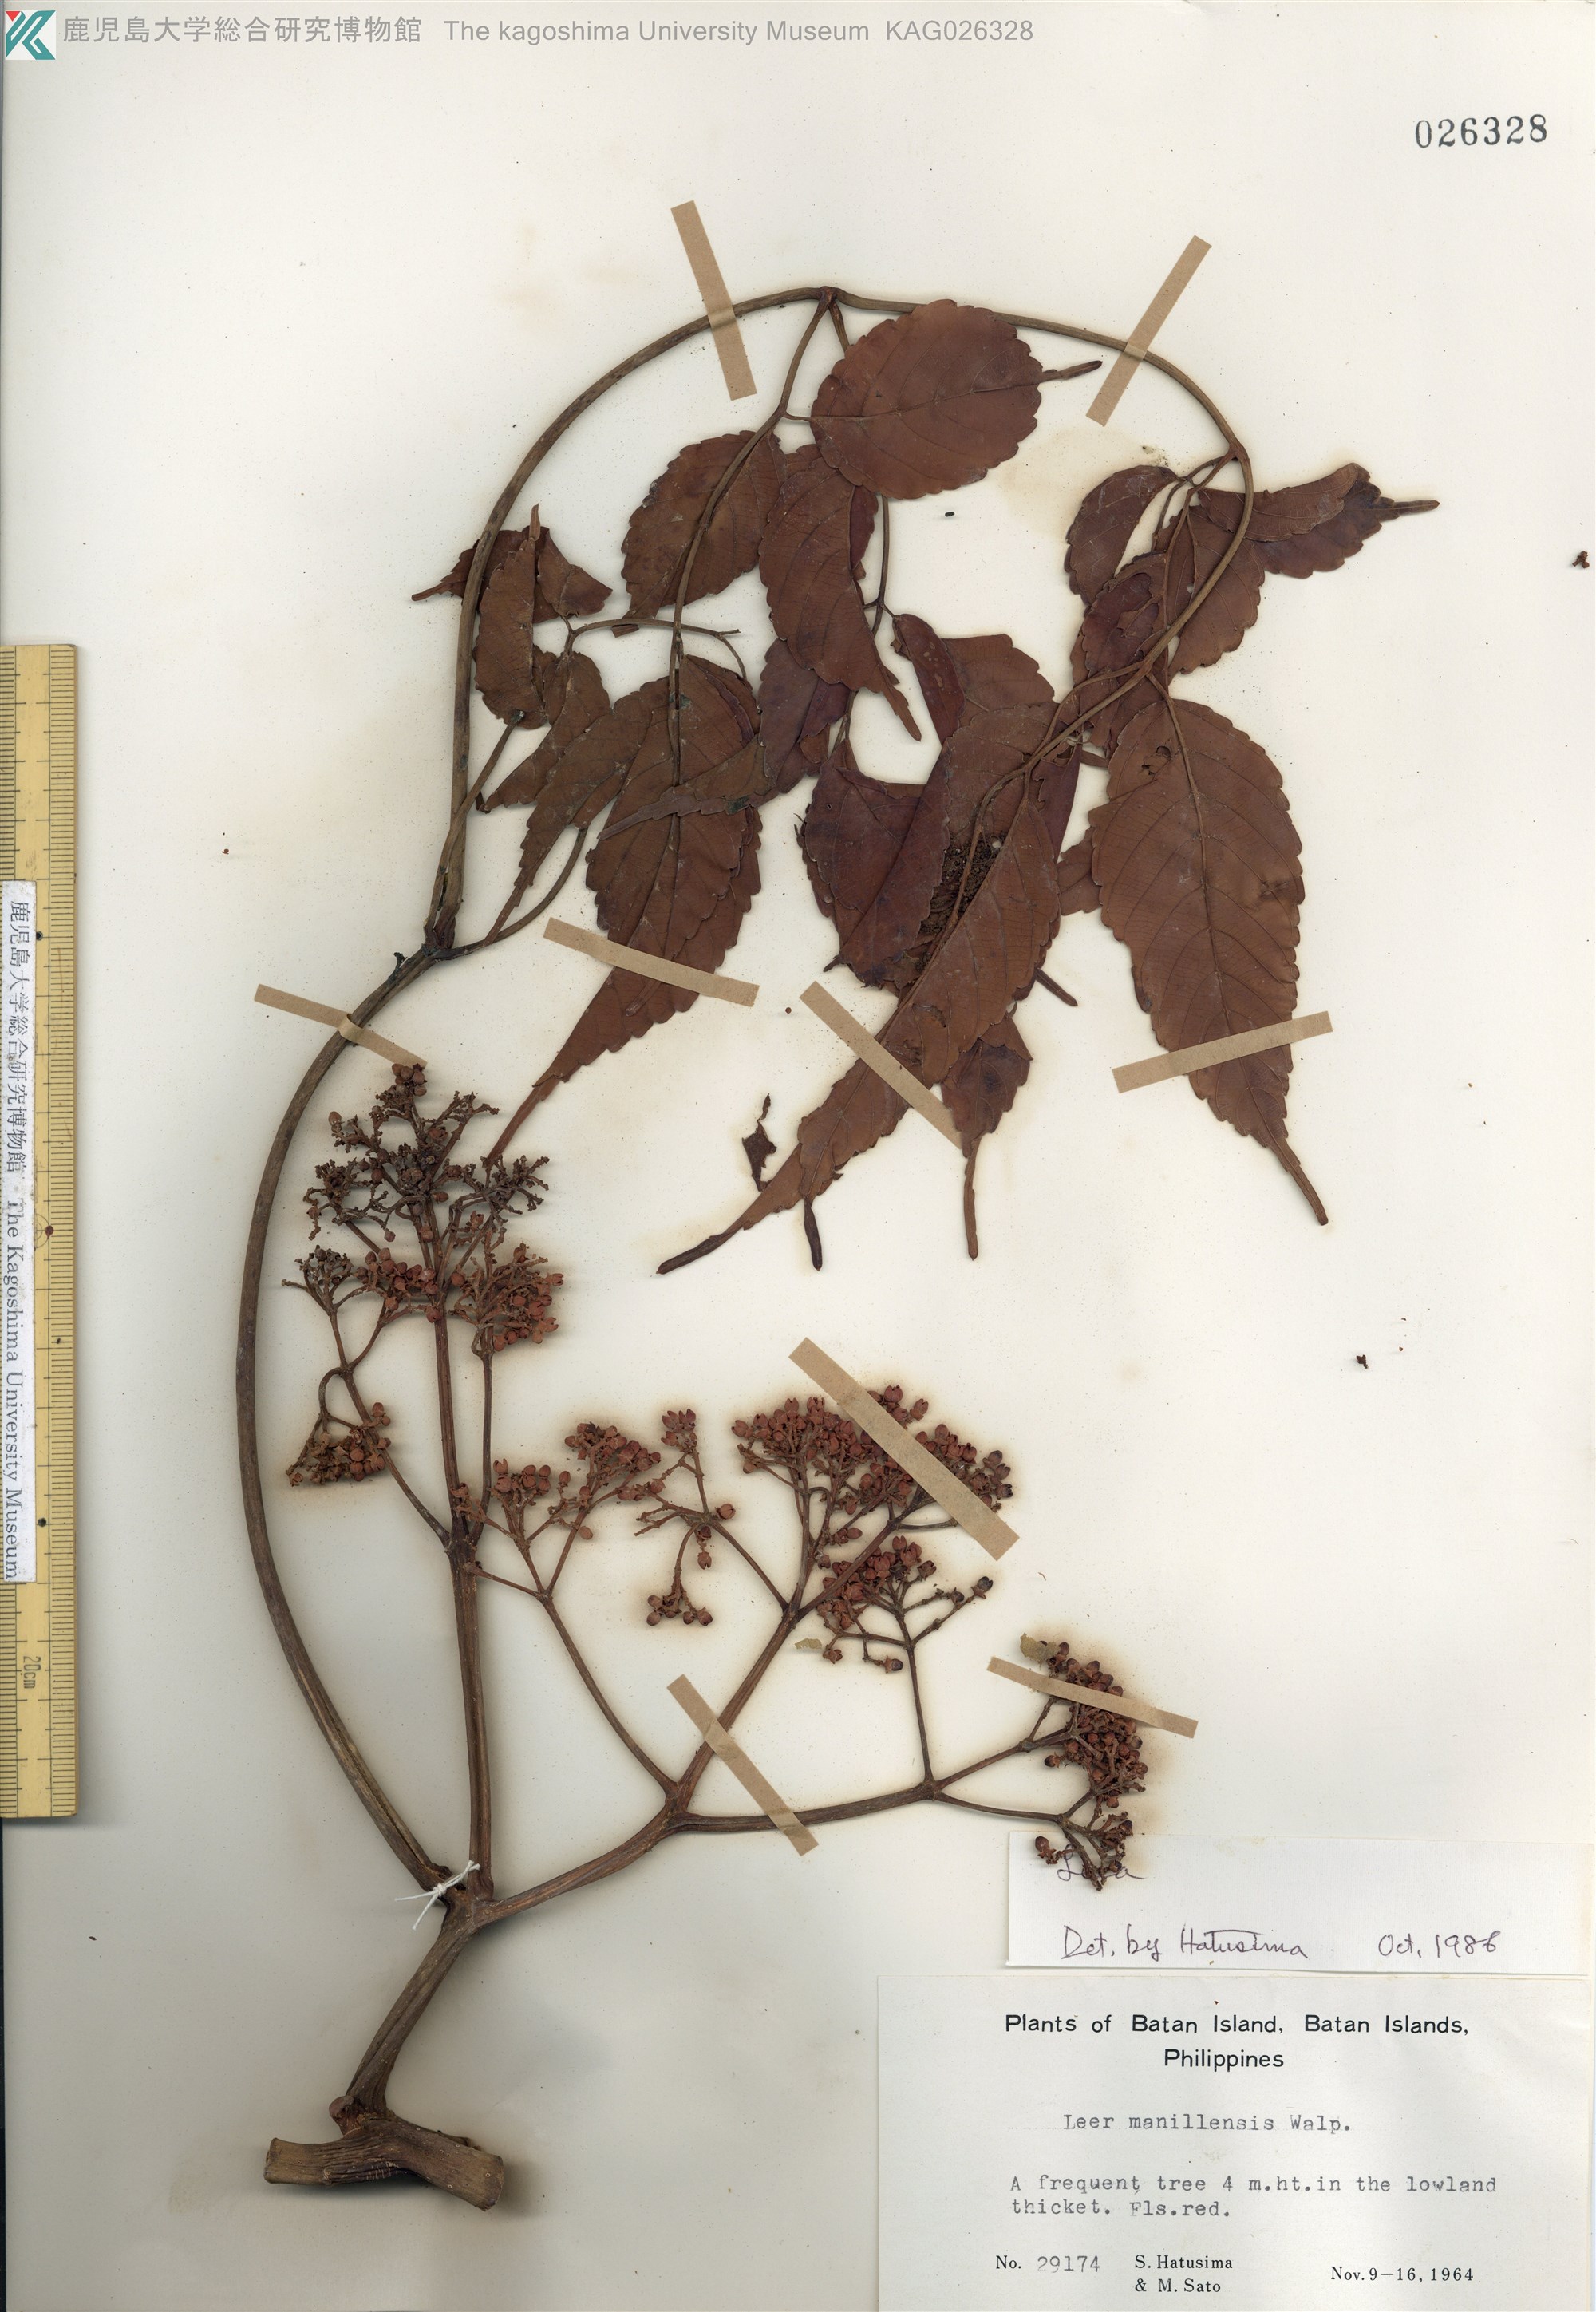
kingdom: Plantae
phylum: Tracheophyta
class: Magnoliopsida
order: Vitales
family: Vitaceae
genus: Leea
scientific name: Leea guineensis
